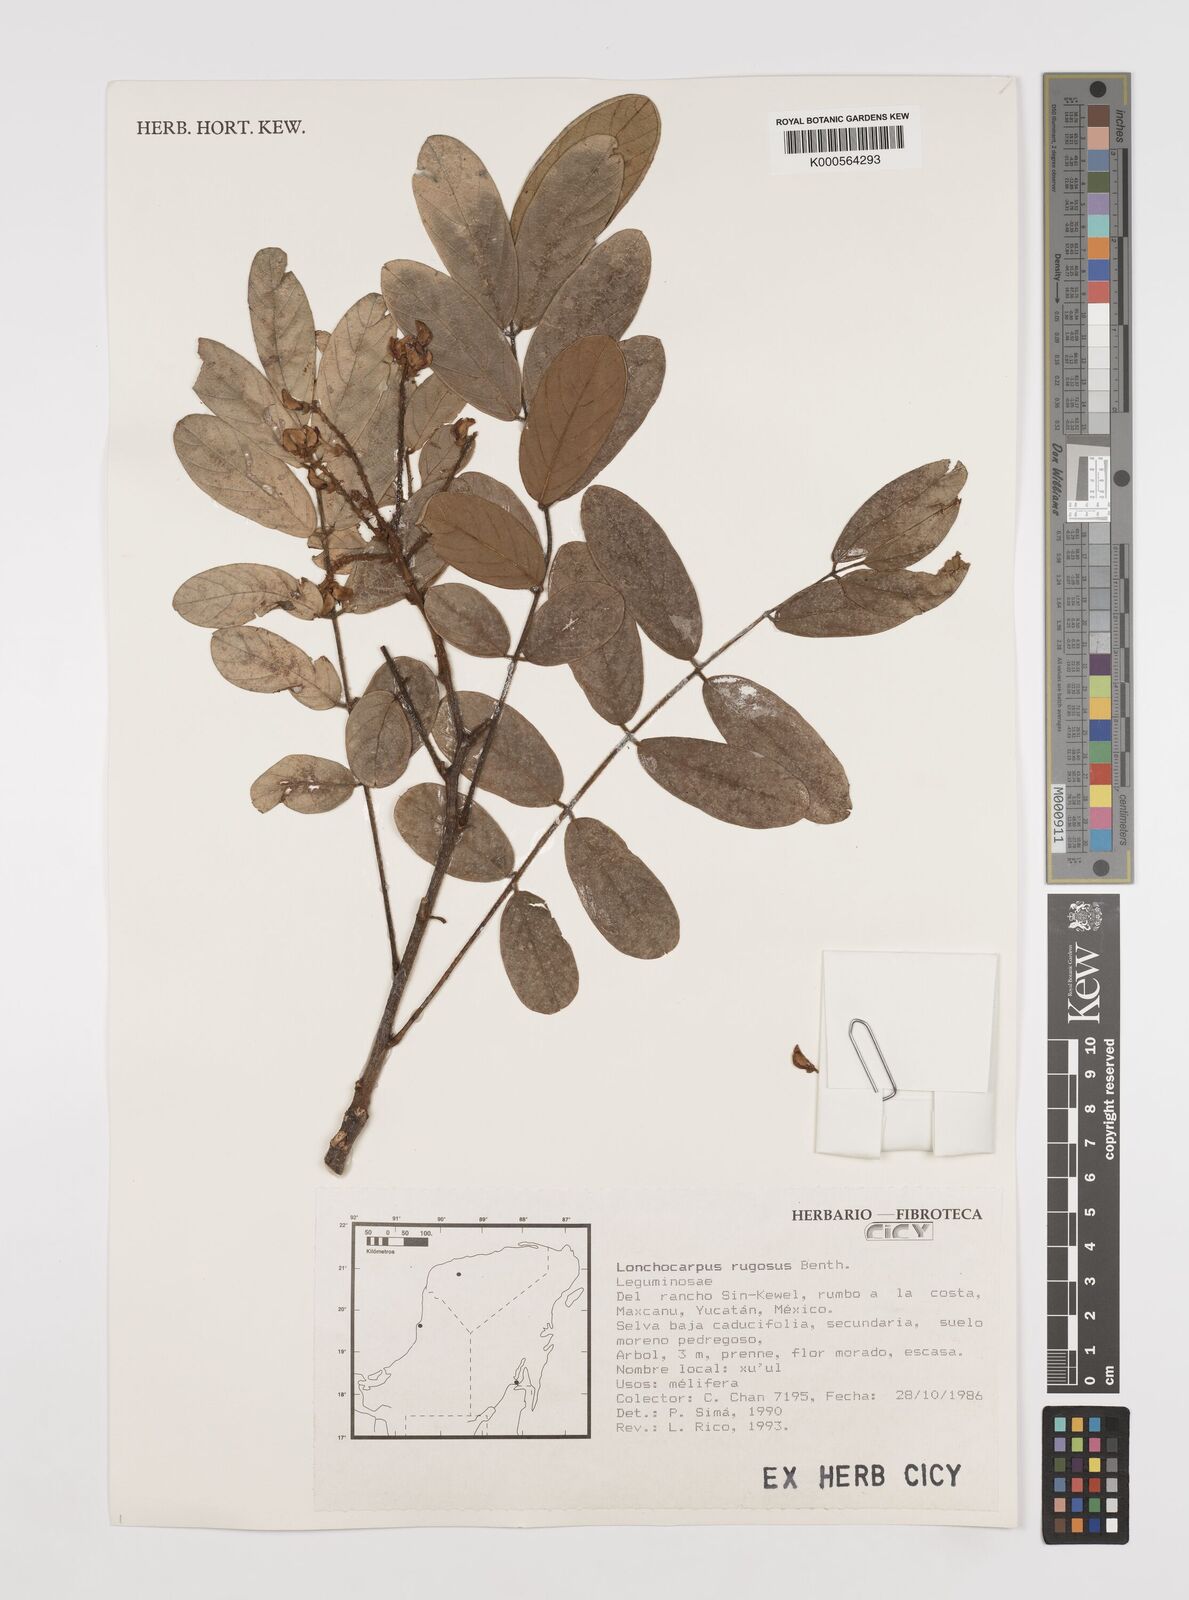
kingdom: Plantae
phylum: Tracheophyta
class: Magnoliopsida
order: Fabales
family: Fabaceae
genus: Lonchocarpus
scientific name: Lonchocarpus rugosus
